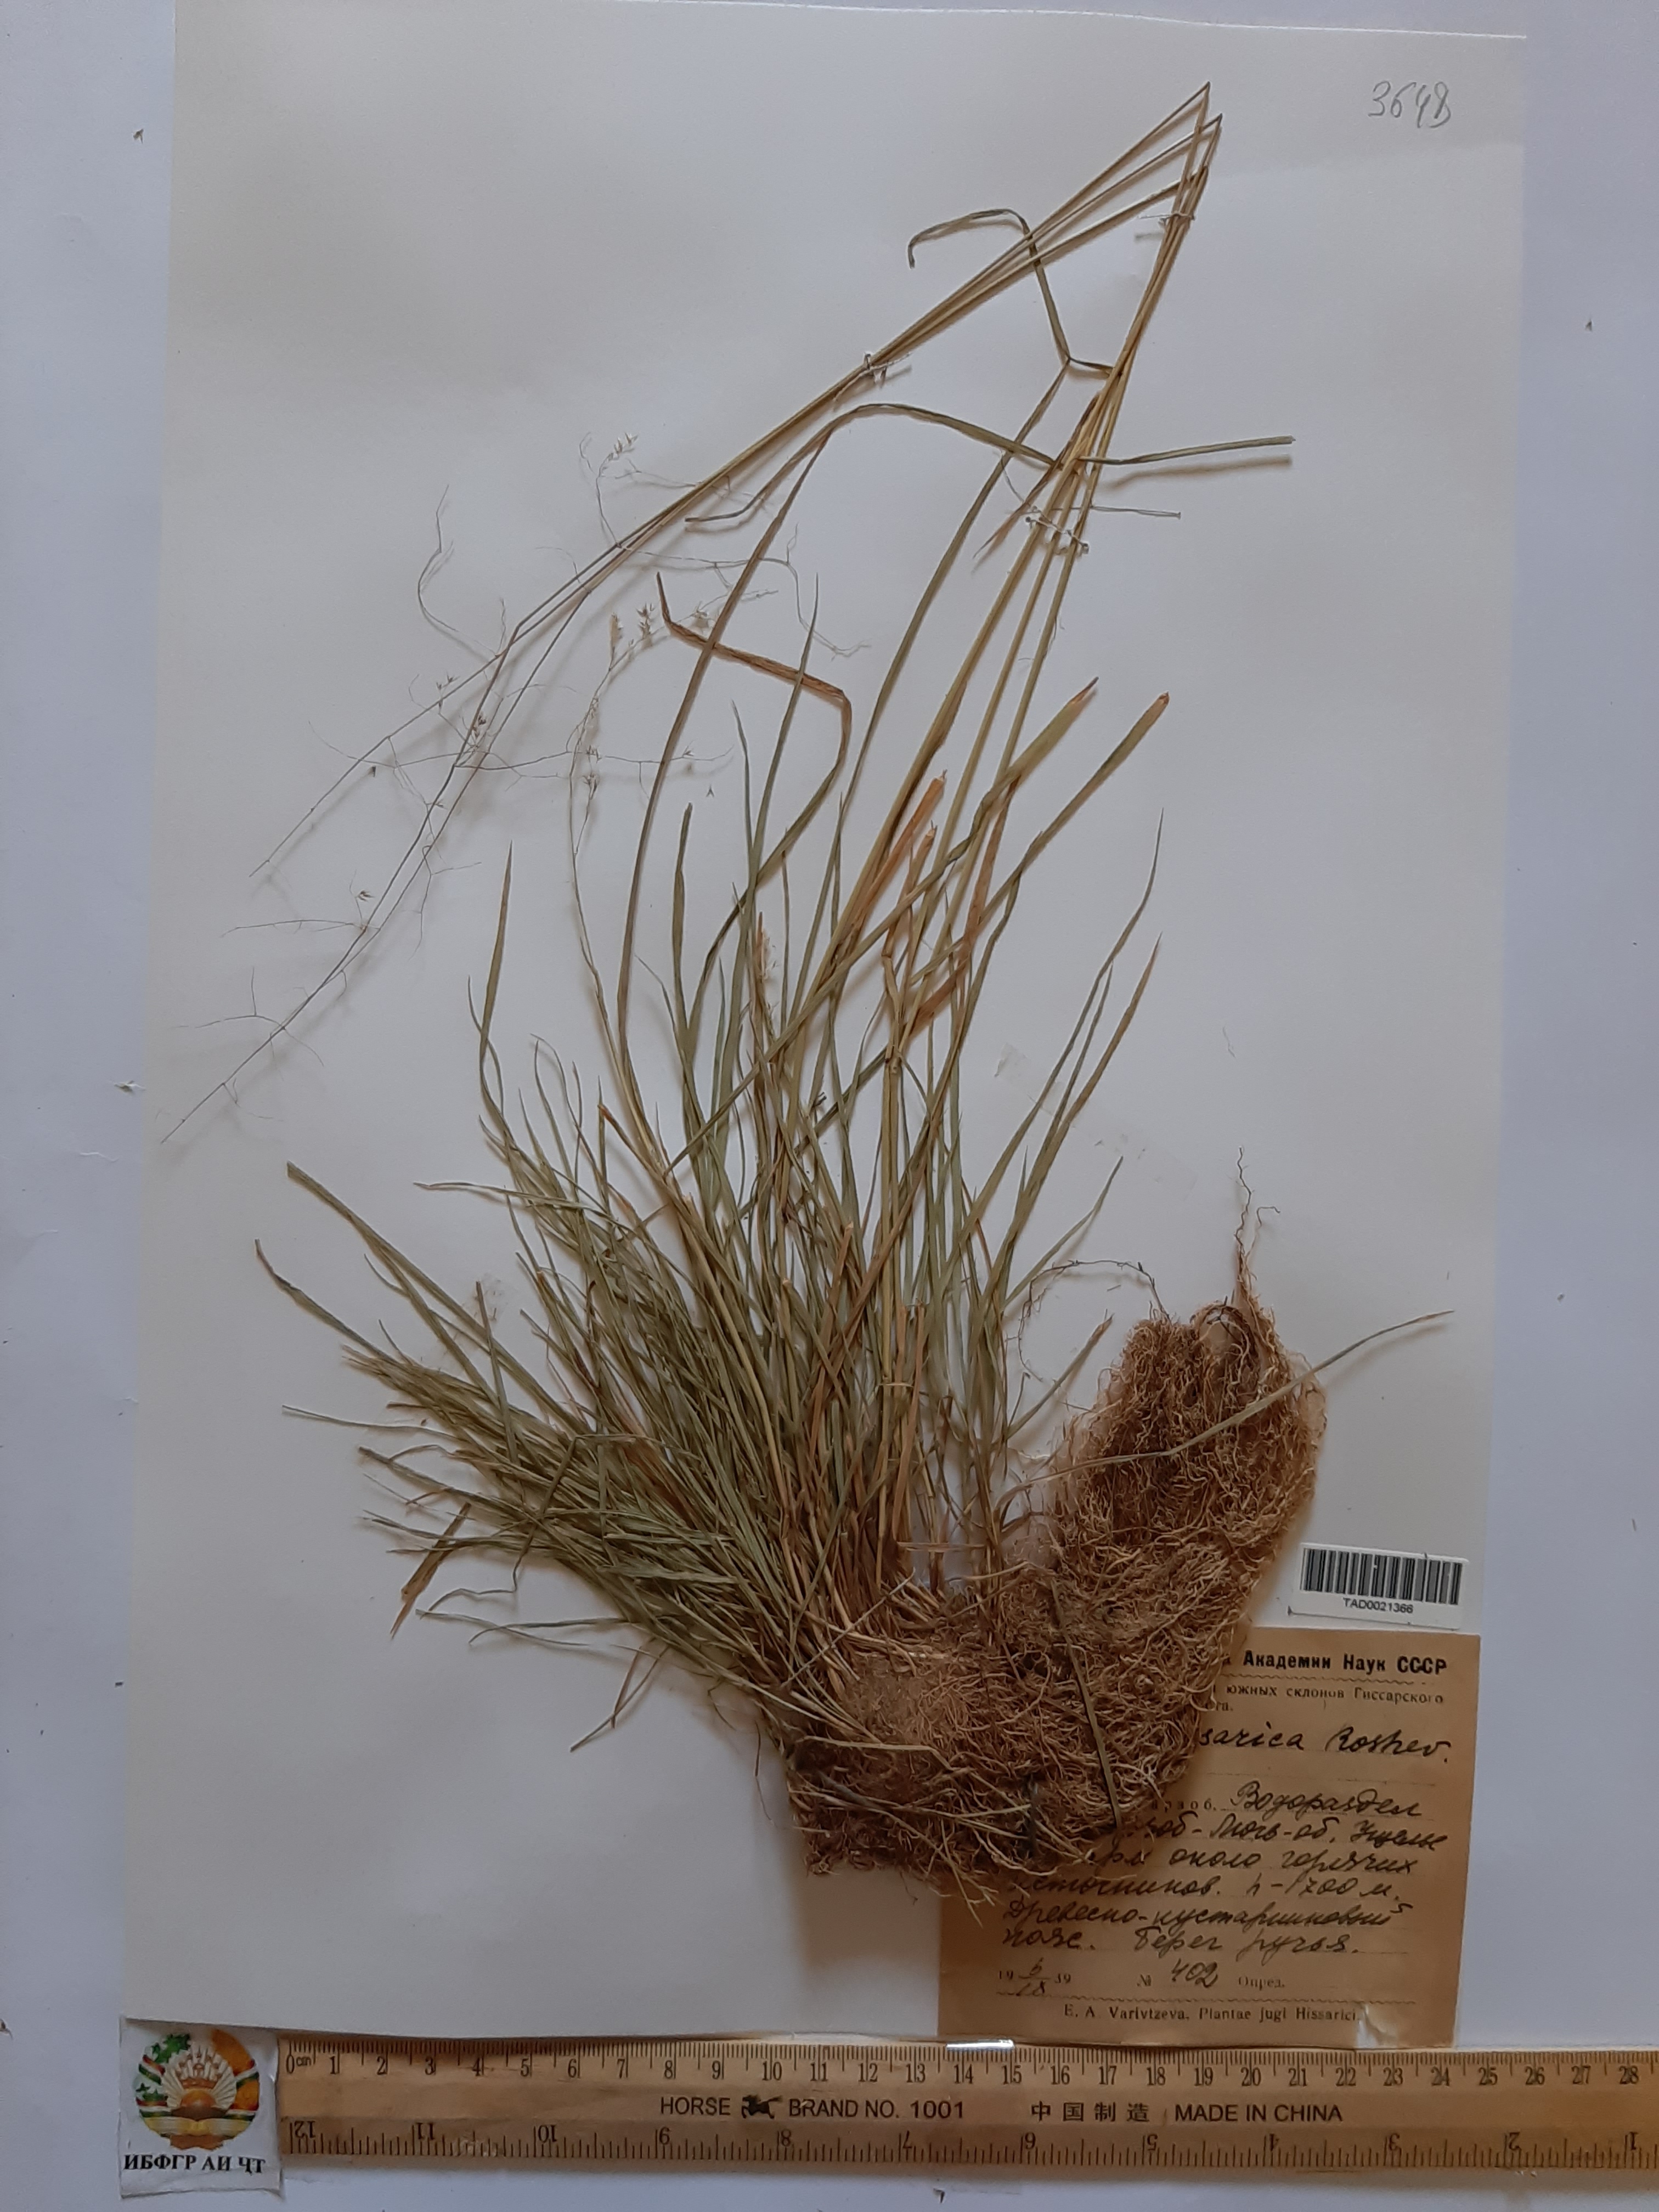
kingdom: Plantae
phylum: Tracheophyta
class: Liliopsida
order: Poales
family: Poaceae
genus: Polypogon
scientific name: Polypogon hissaricus
